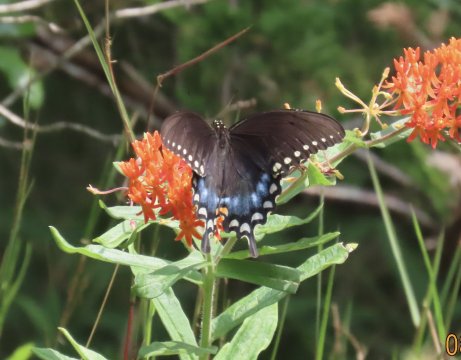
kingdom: Animalia
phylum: Arthropoda
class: Insecta
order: Lepidoptera
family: Papilionidae
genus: Pterourus
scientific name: Pterourus troilus
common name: Spicebush Swallowtail
